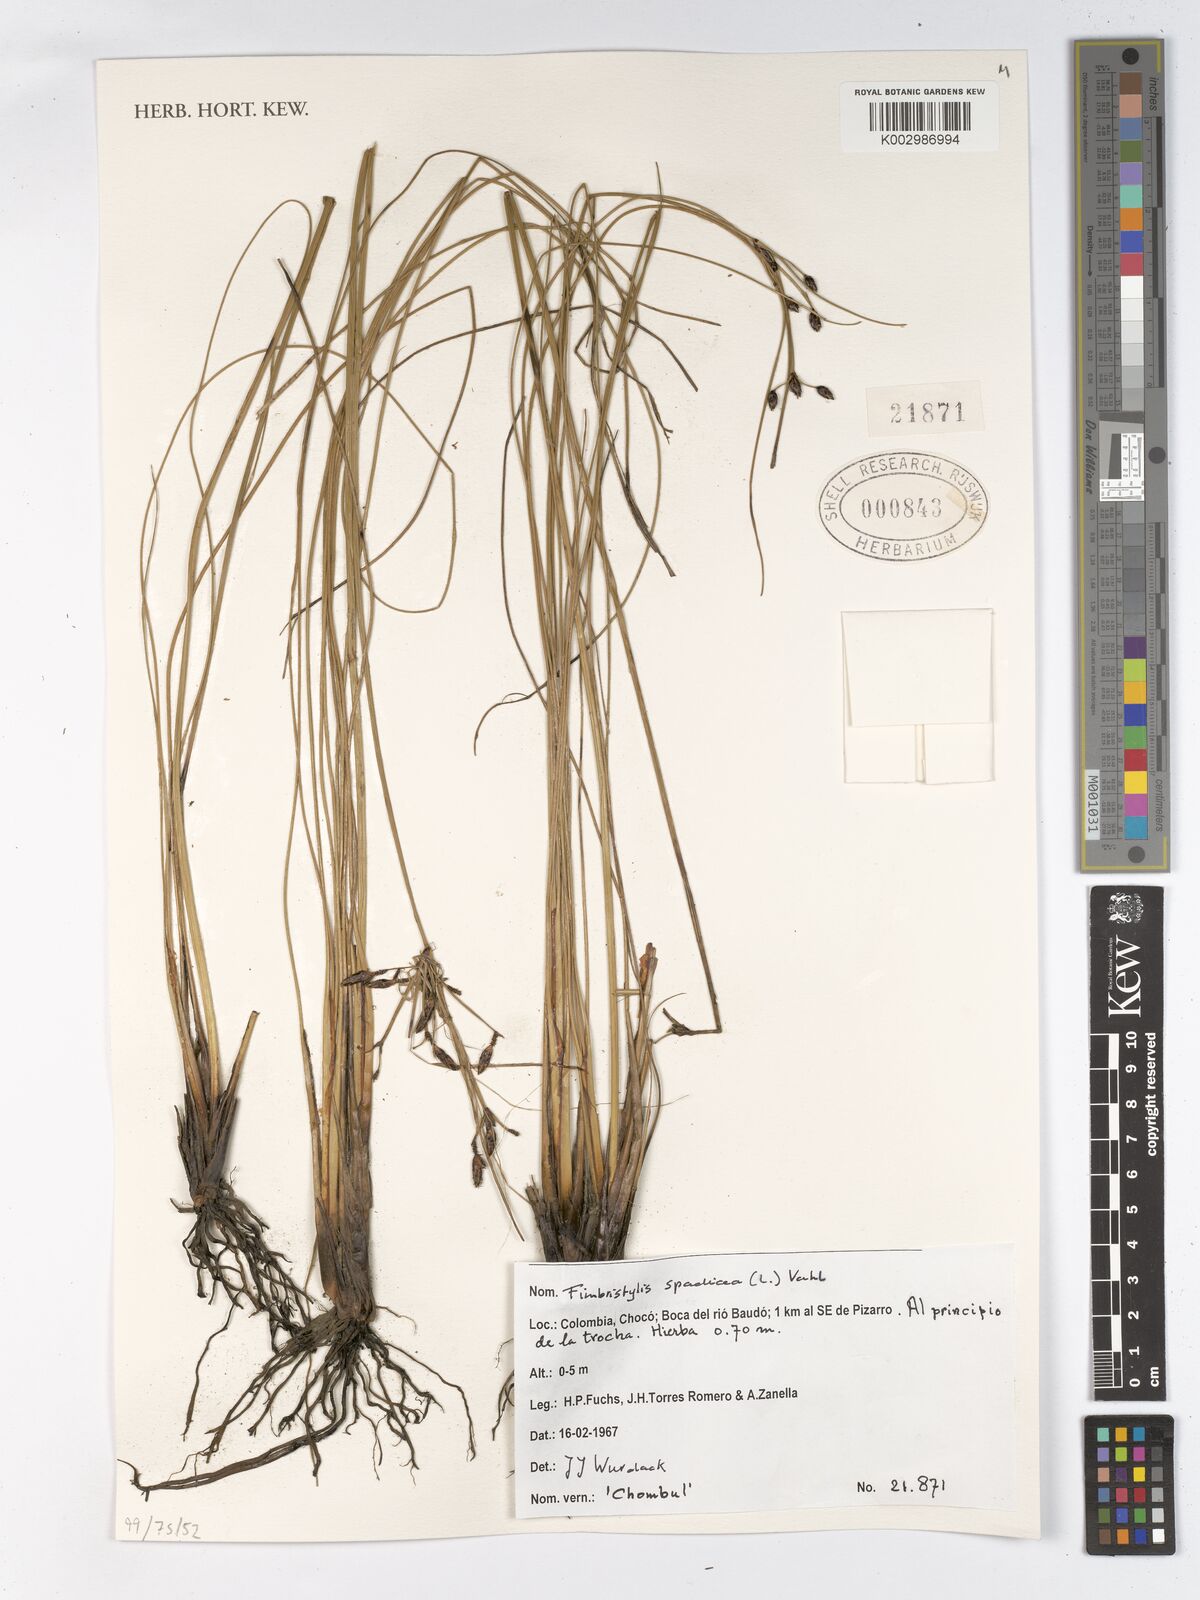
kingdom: Plantae
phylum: Tracheophyta
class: Liliopsida
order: Poales
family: Cyperaceae
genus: Fimbristylis
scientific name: Fimbristylis spadicea
